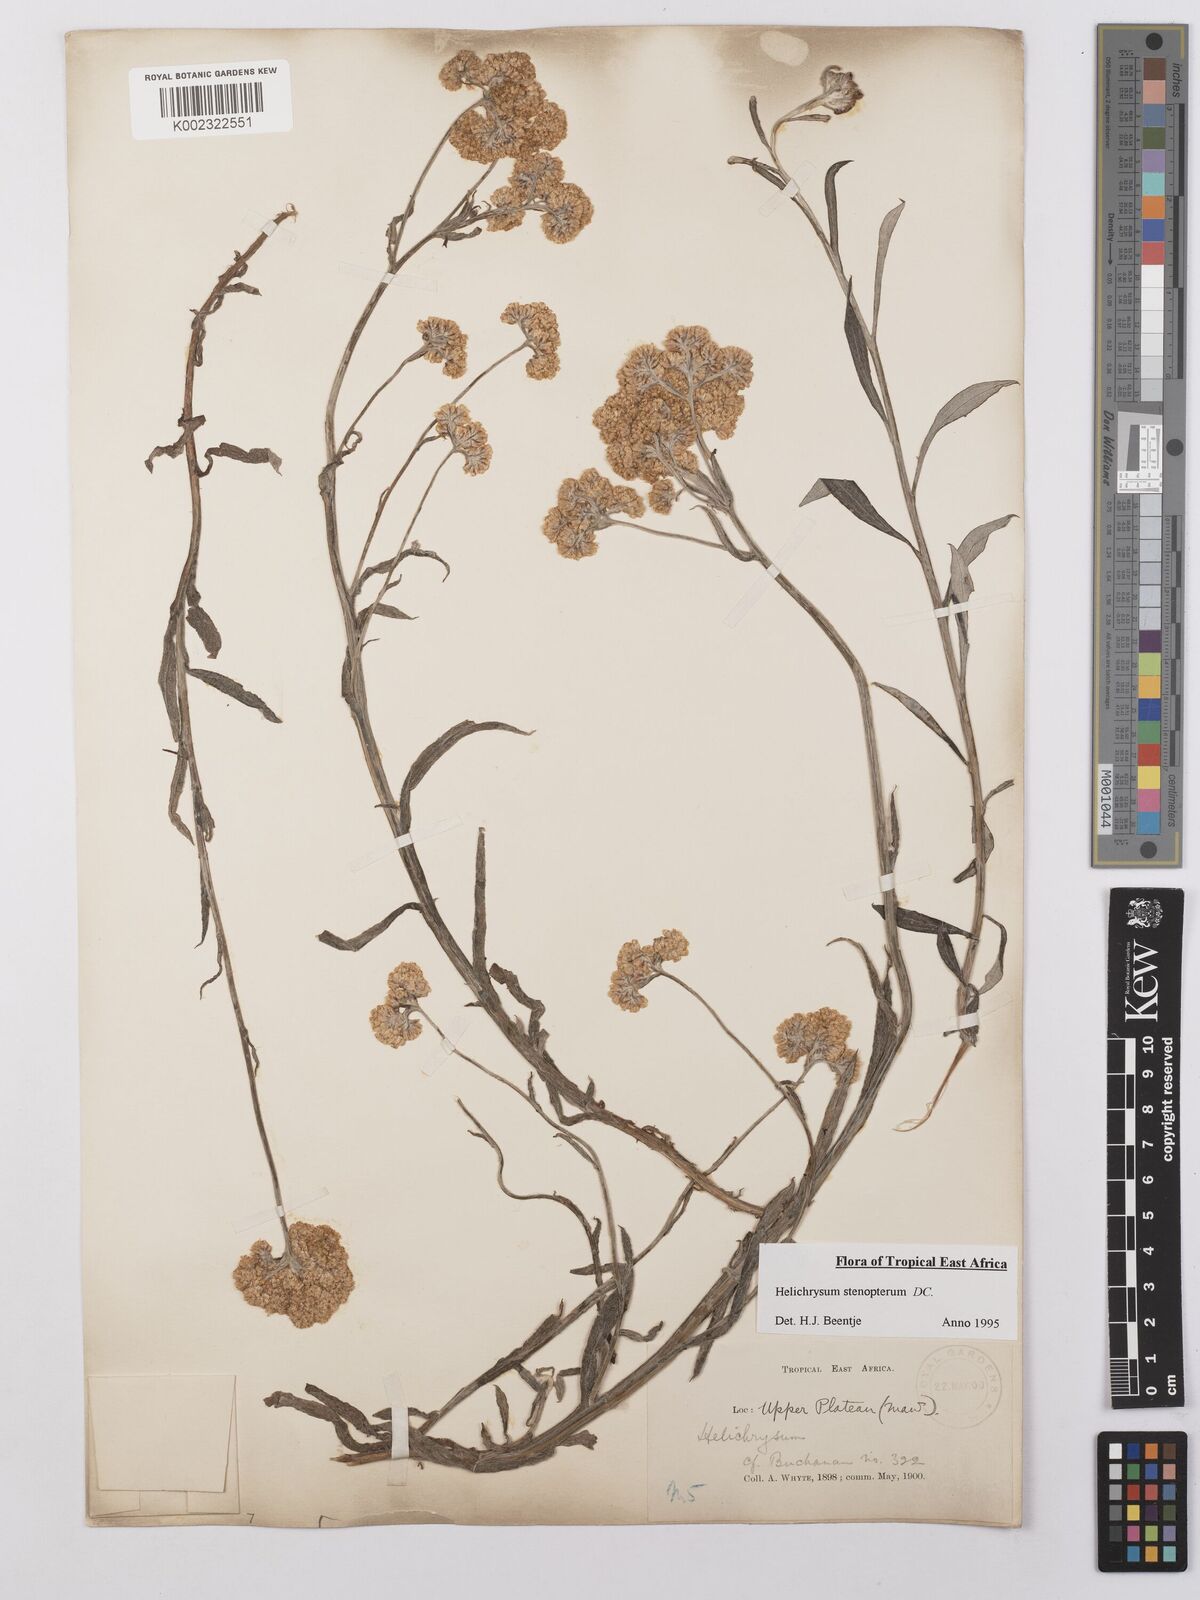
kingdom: Plantae
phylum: Tracheophyta
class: Magnoliopsida
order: Asterales
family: Asteraceae
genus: Helichrysum
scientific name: Helichrysum stenopterum
